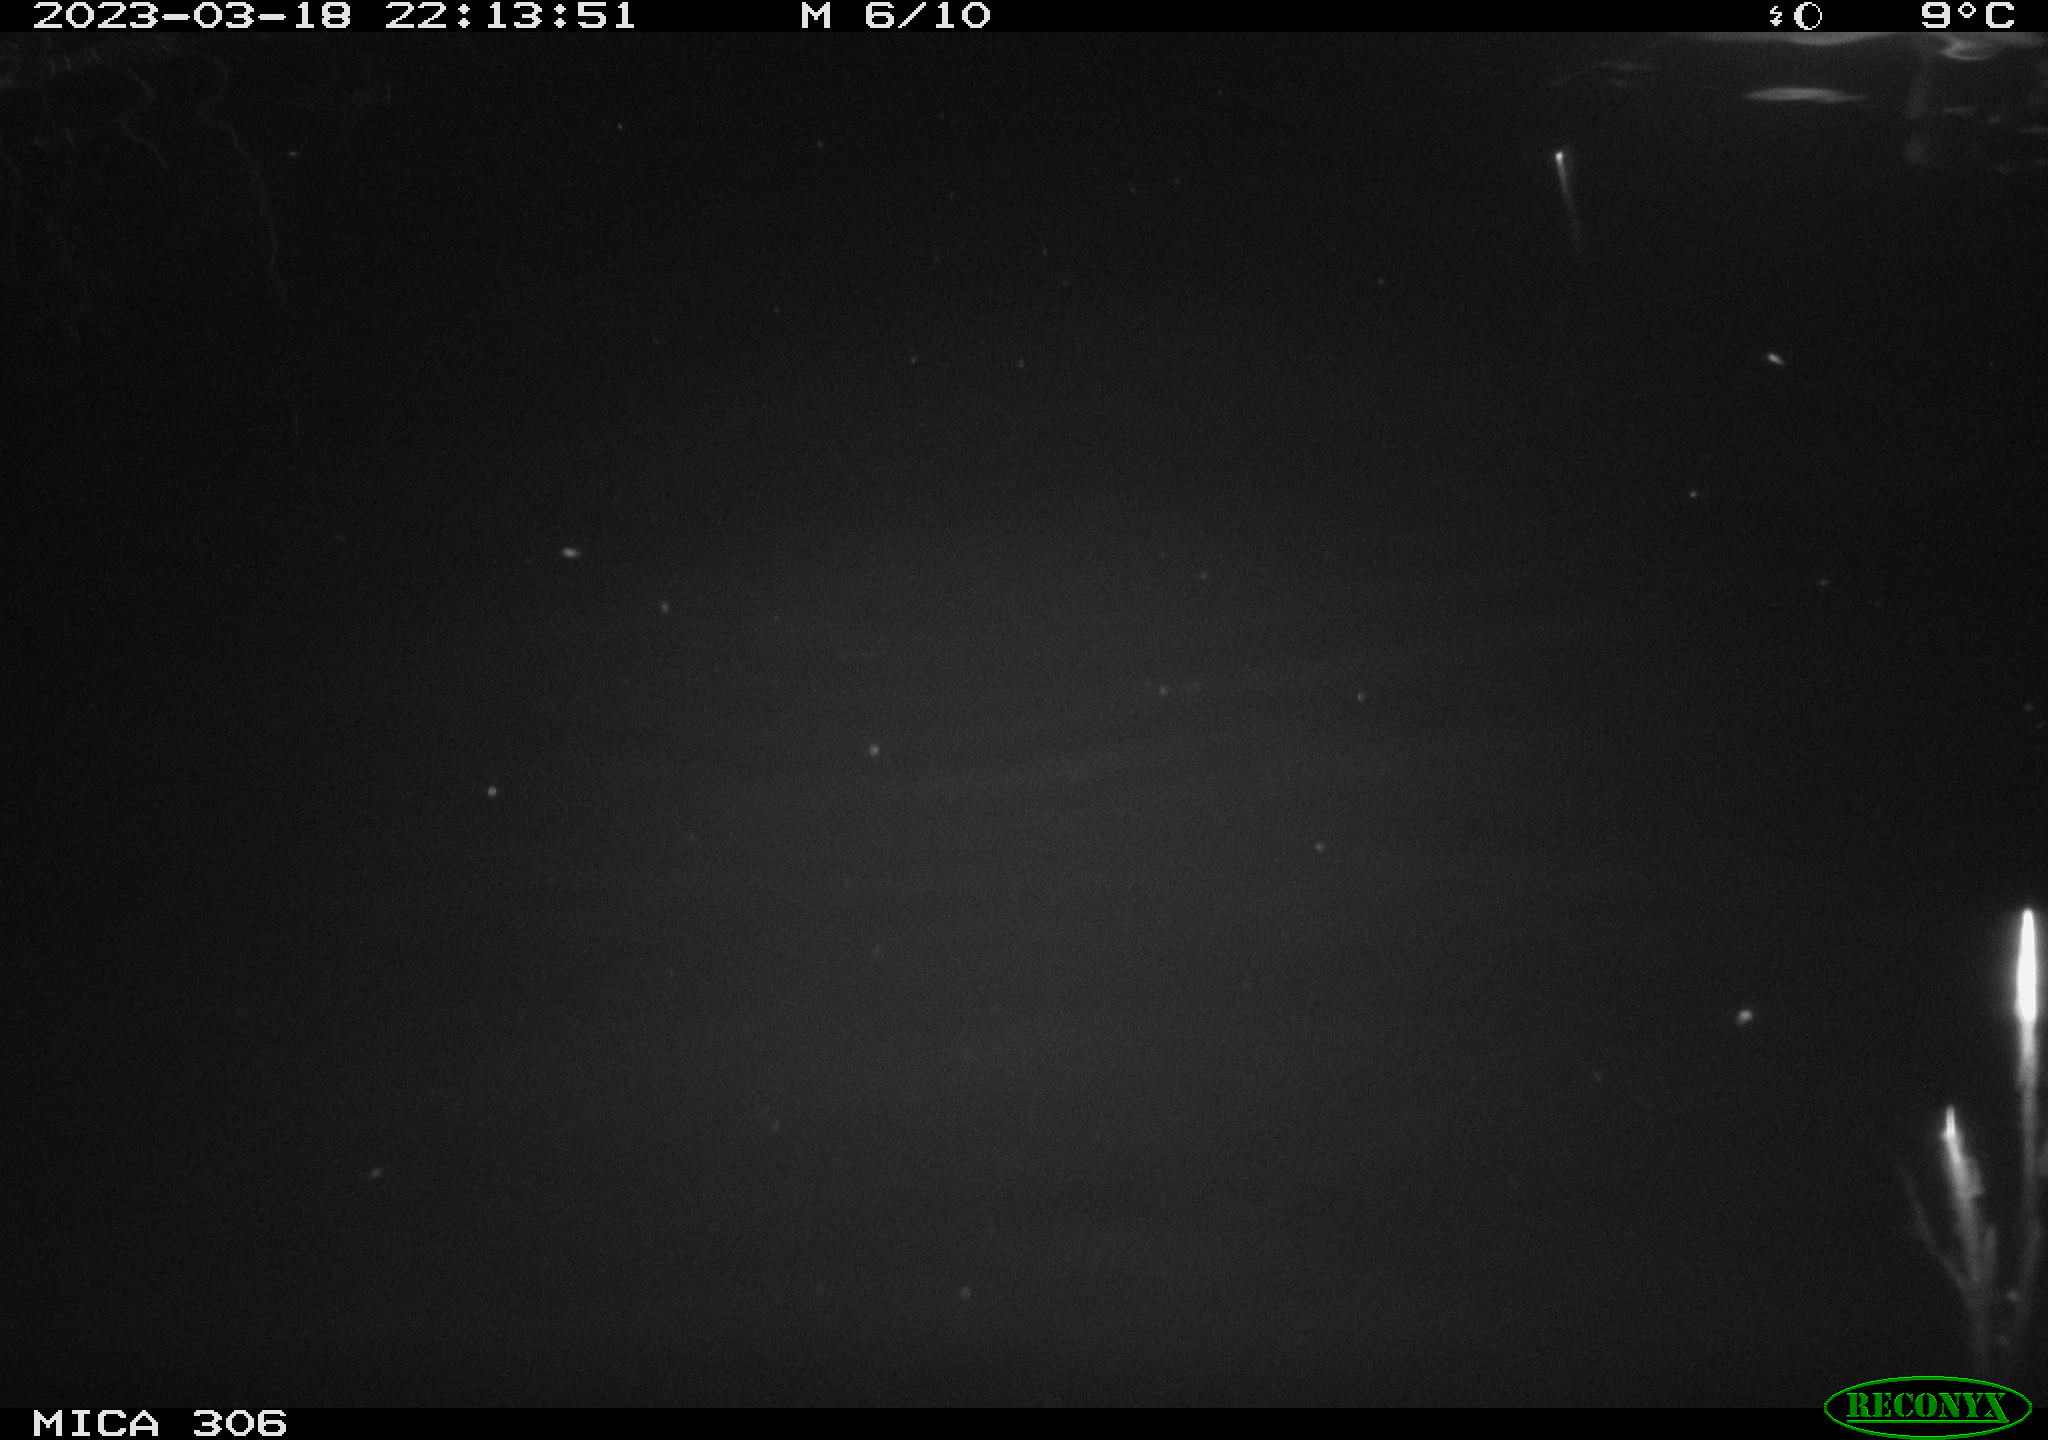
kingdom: Animalia
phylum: Chordata
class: Aves
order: Anseriformes
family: Anatidae
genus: Anas
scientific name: Anas
